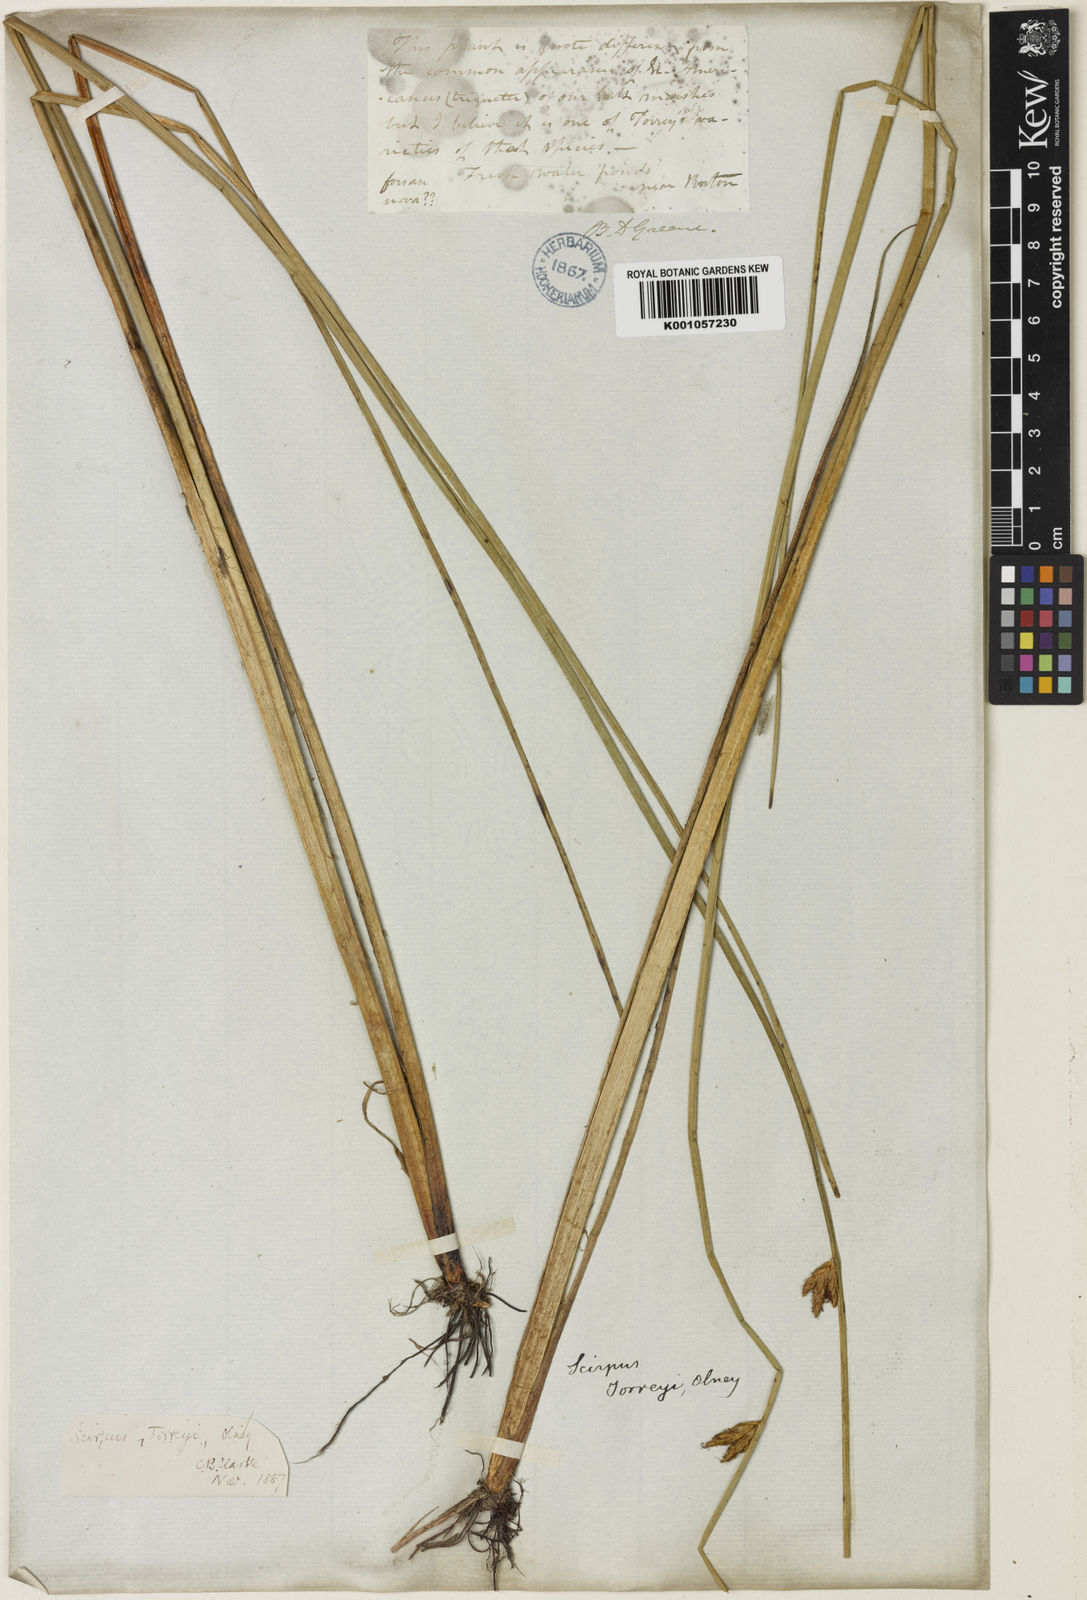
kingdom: Plantae
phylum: Tracheophyta
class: Liliopsida
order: Poales
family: Cyperaceae
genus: Schoenoplectus
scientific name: Schoenoplectus torreyi
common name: Torrey's bulrush
